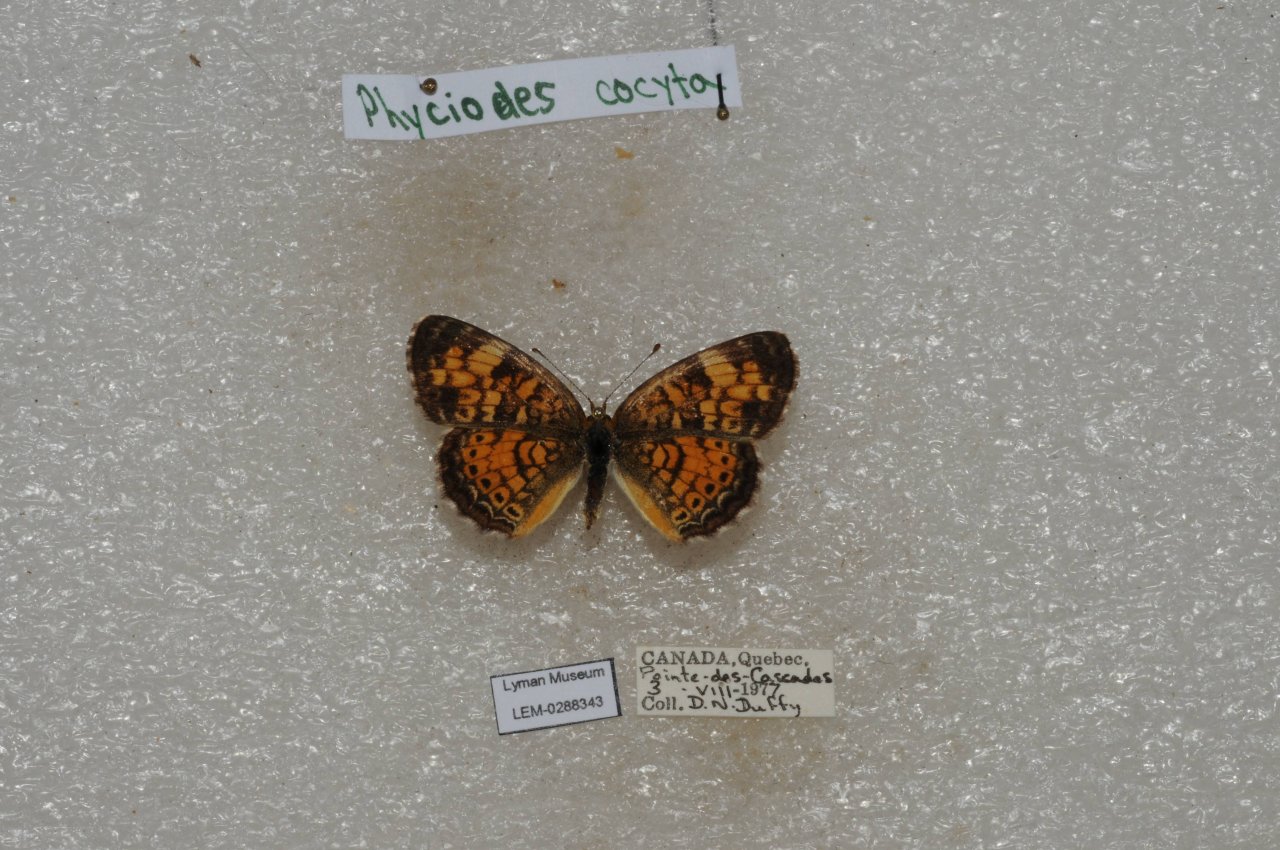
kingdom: Animalia
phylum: Arthropoda
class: Insecta
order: Lepidoptera
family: Nymphalidae
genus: Phyciodes
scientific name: Phyciodes tharos
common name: Northern Crescent
